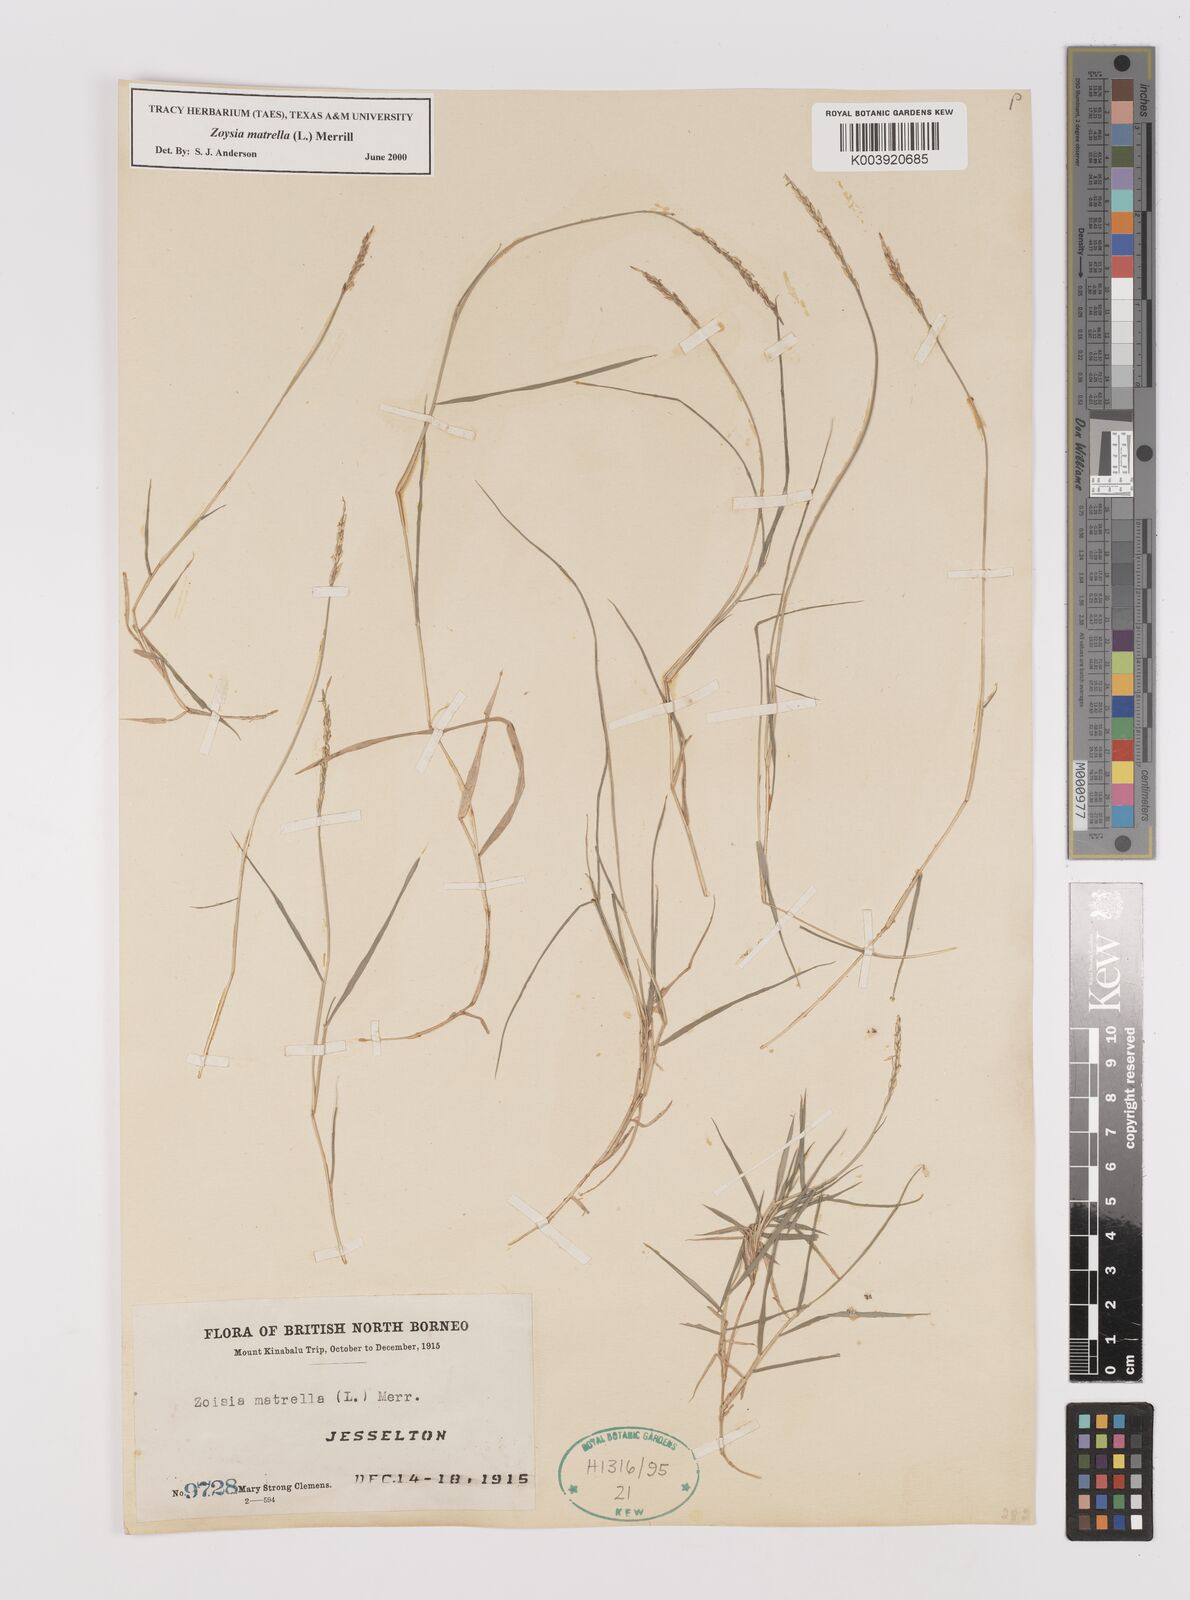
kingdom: Plantae
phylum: Tracheophyta
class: Liliopsida
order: Poales
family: Poaceae
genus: Zoysia
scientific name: Zoysia matrella
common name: Manila grass
